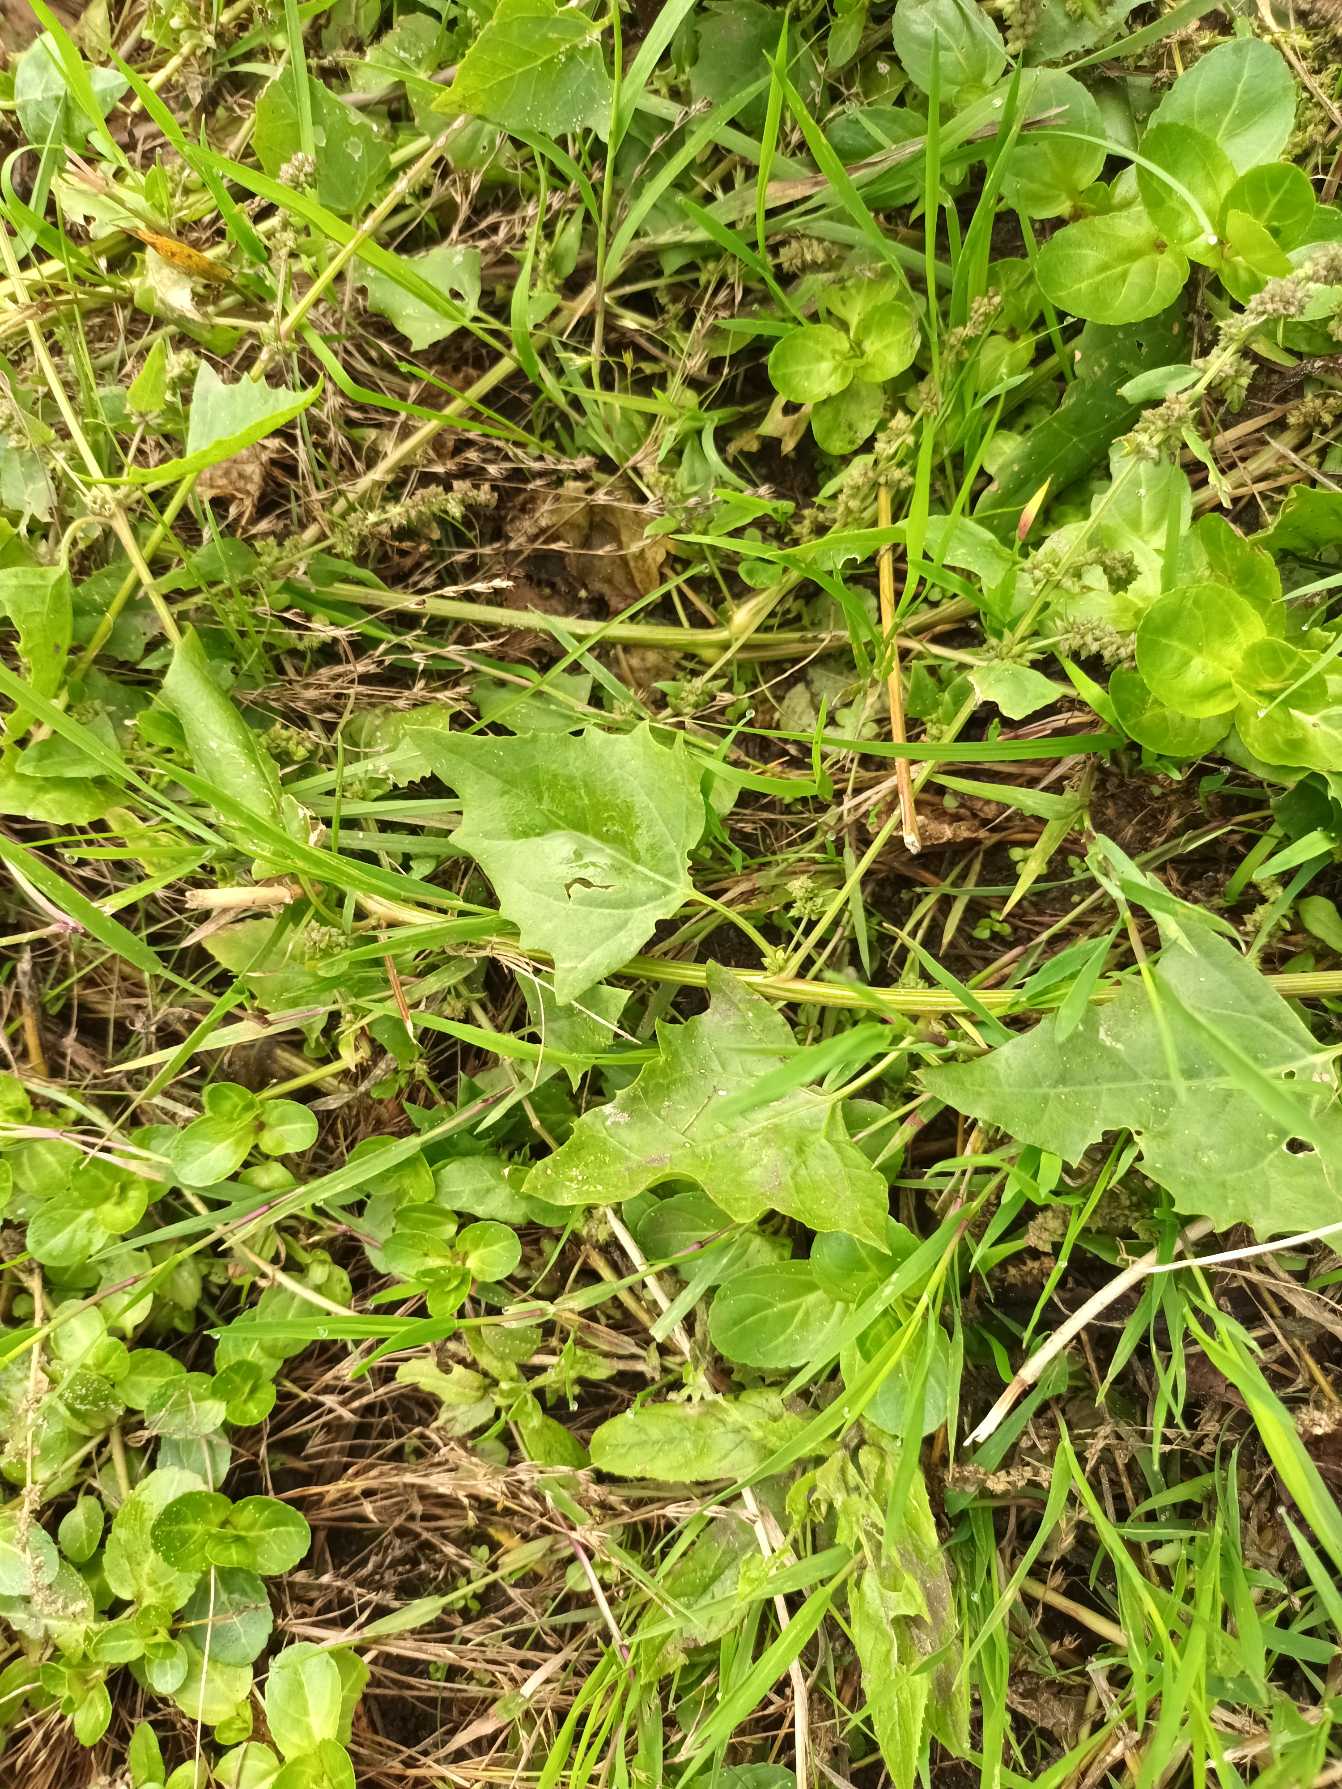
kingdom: Plantae
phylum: Tracheophyta
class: Magnoliopsida
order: Caryophyllales
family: Amaranthaceae
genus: Atriplex
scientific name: Atriplex prostrata
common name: Spyd-mælde
